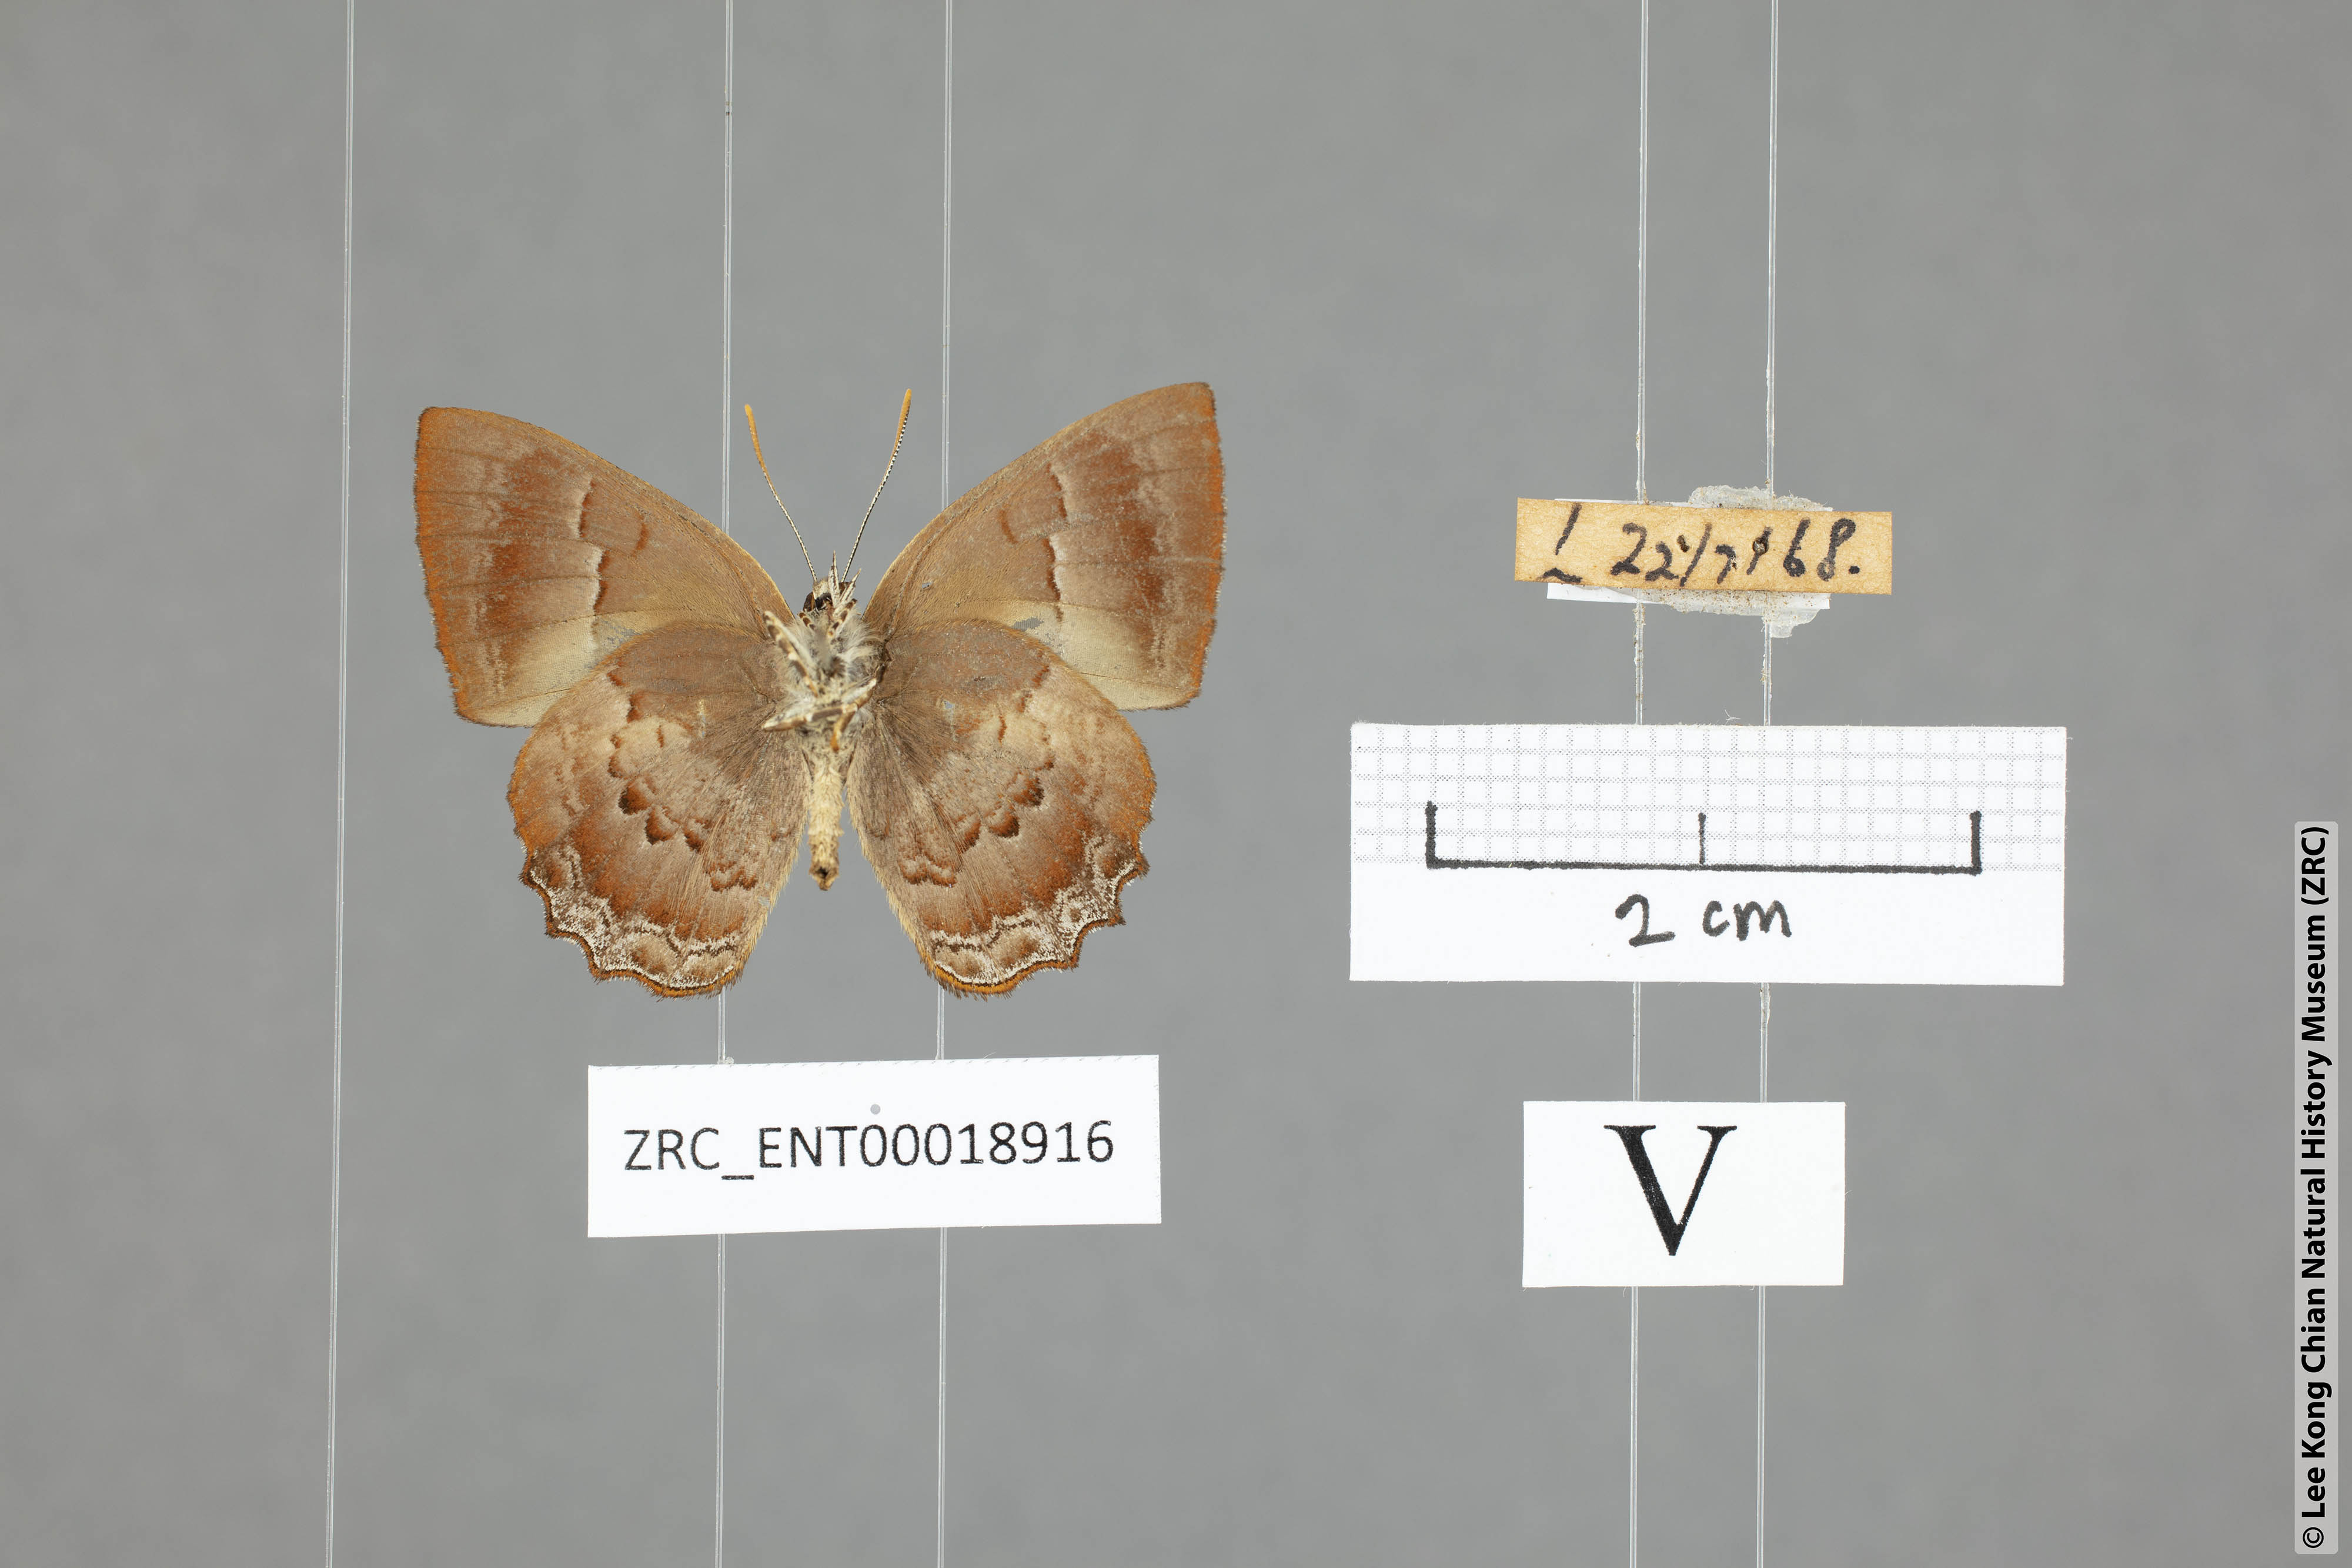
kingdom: Animalia
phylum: Arthropoda
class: Insecta
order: Lepidoptera
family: Lycaenidae
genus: Poritia
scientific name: Poritia proxina
